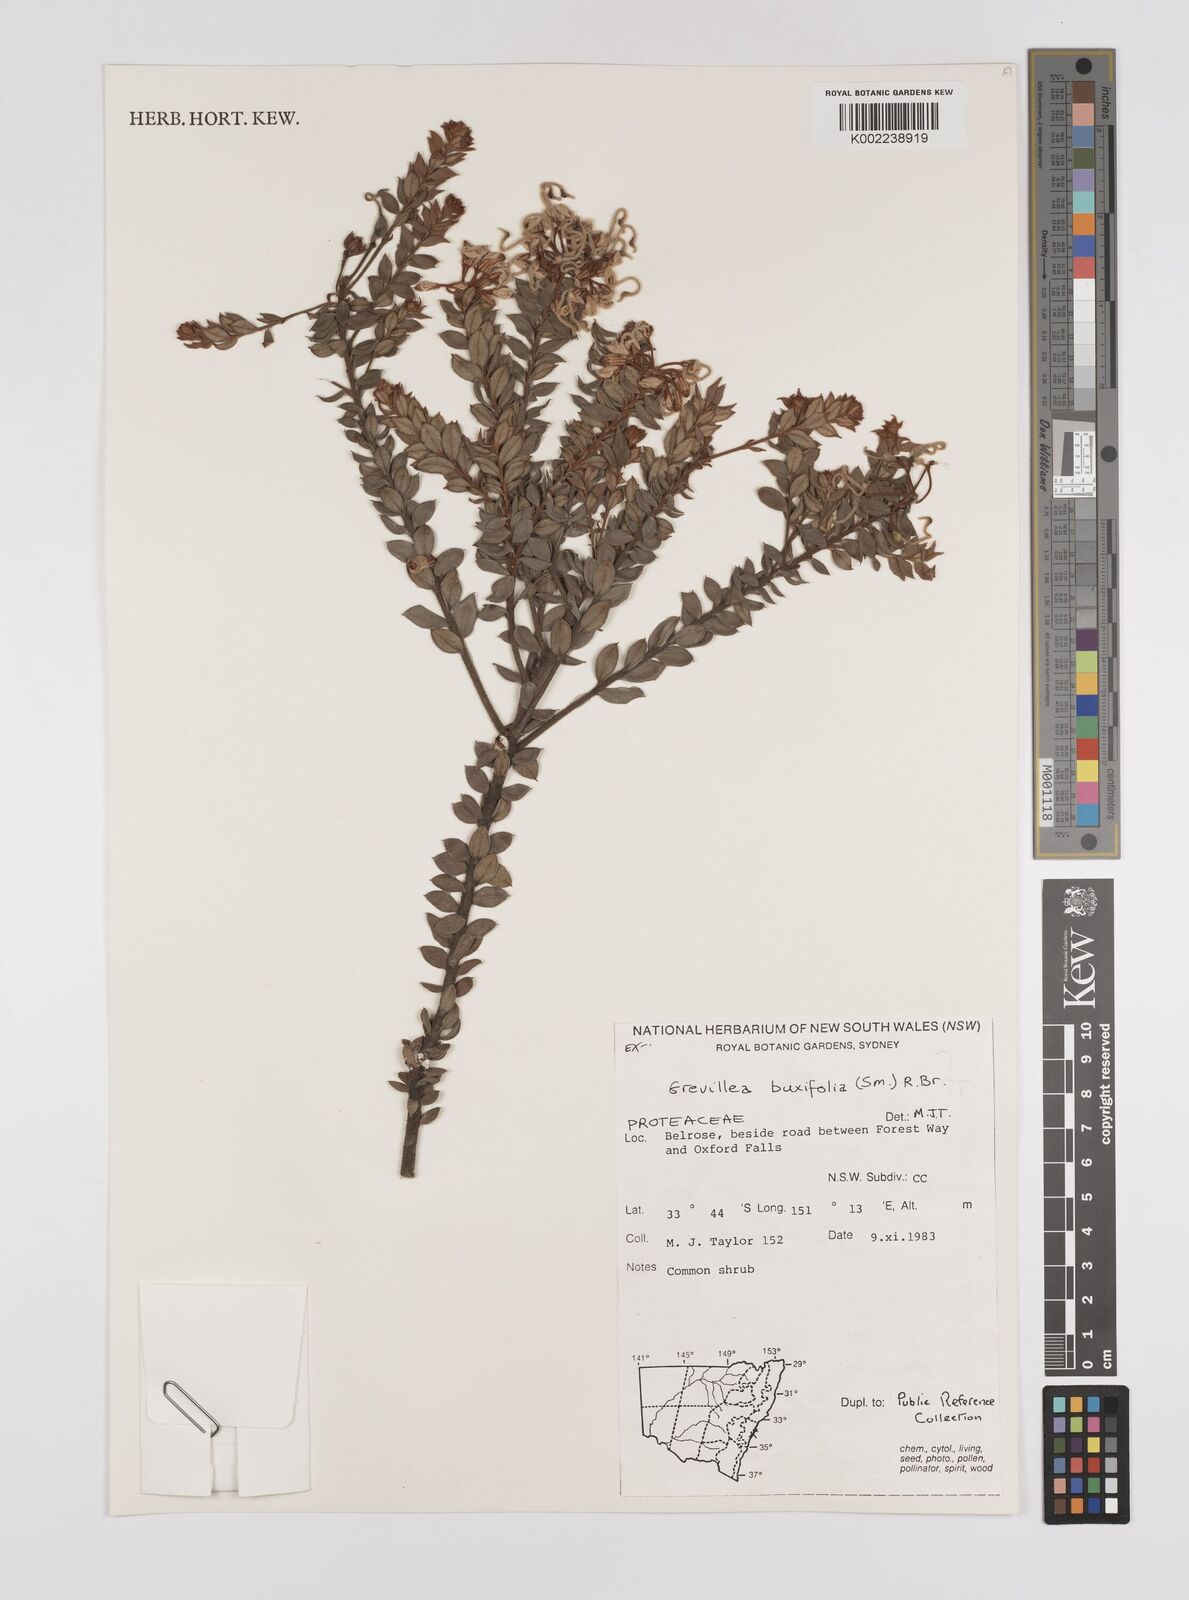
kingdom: Plantae
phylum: Tracheophyta
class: Magnoliopsida
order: Proteales
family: Proteaceae
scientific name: Proteaceae
